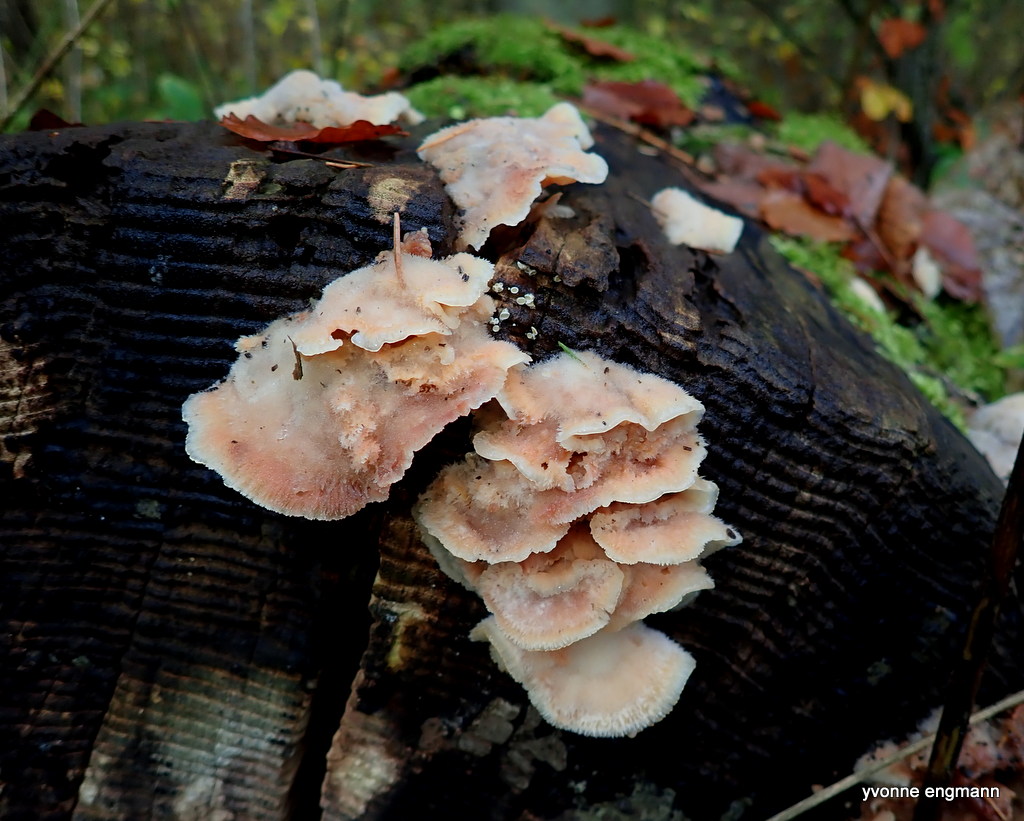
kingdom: Fungi
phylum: Basidiomycota
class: Agaricomycetes
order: Polyporales
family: Meruliaceae
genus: Phlebia
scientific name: Phlebia tremellosa
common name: bævrende åresvamp
